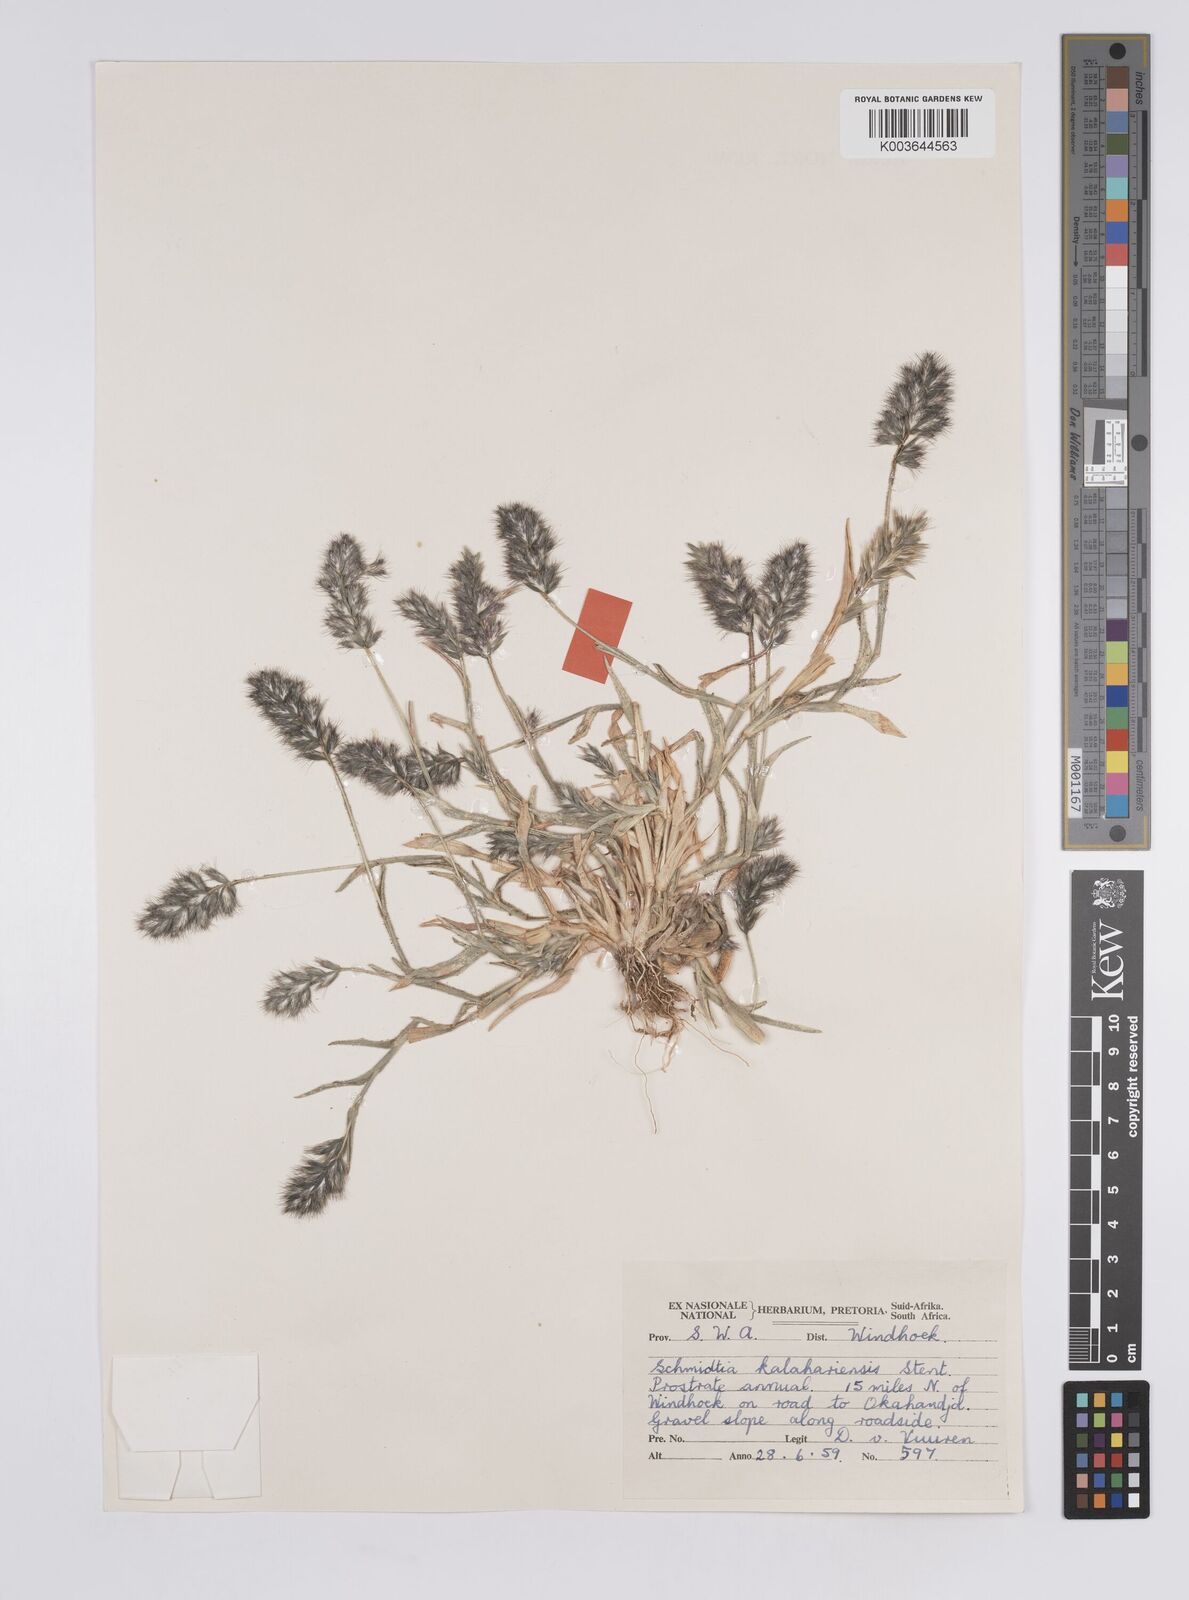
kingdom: Plantae
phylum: Tracheophyta
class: Liliopsida
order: Poales
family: Poaceae
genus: Schmidtia
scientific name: Schmidtia kalahariensis
